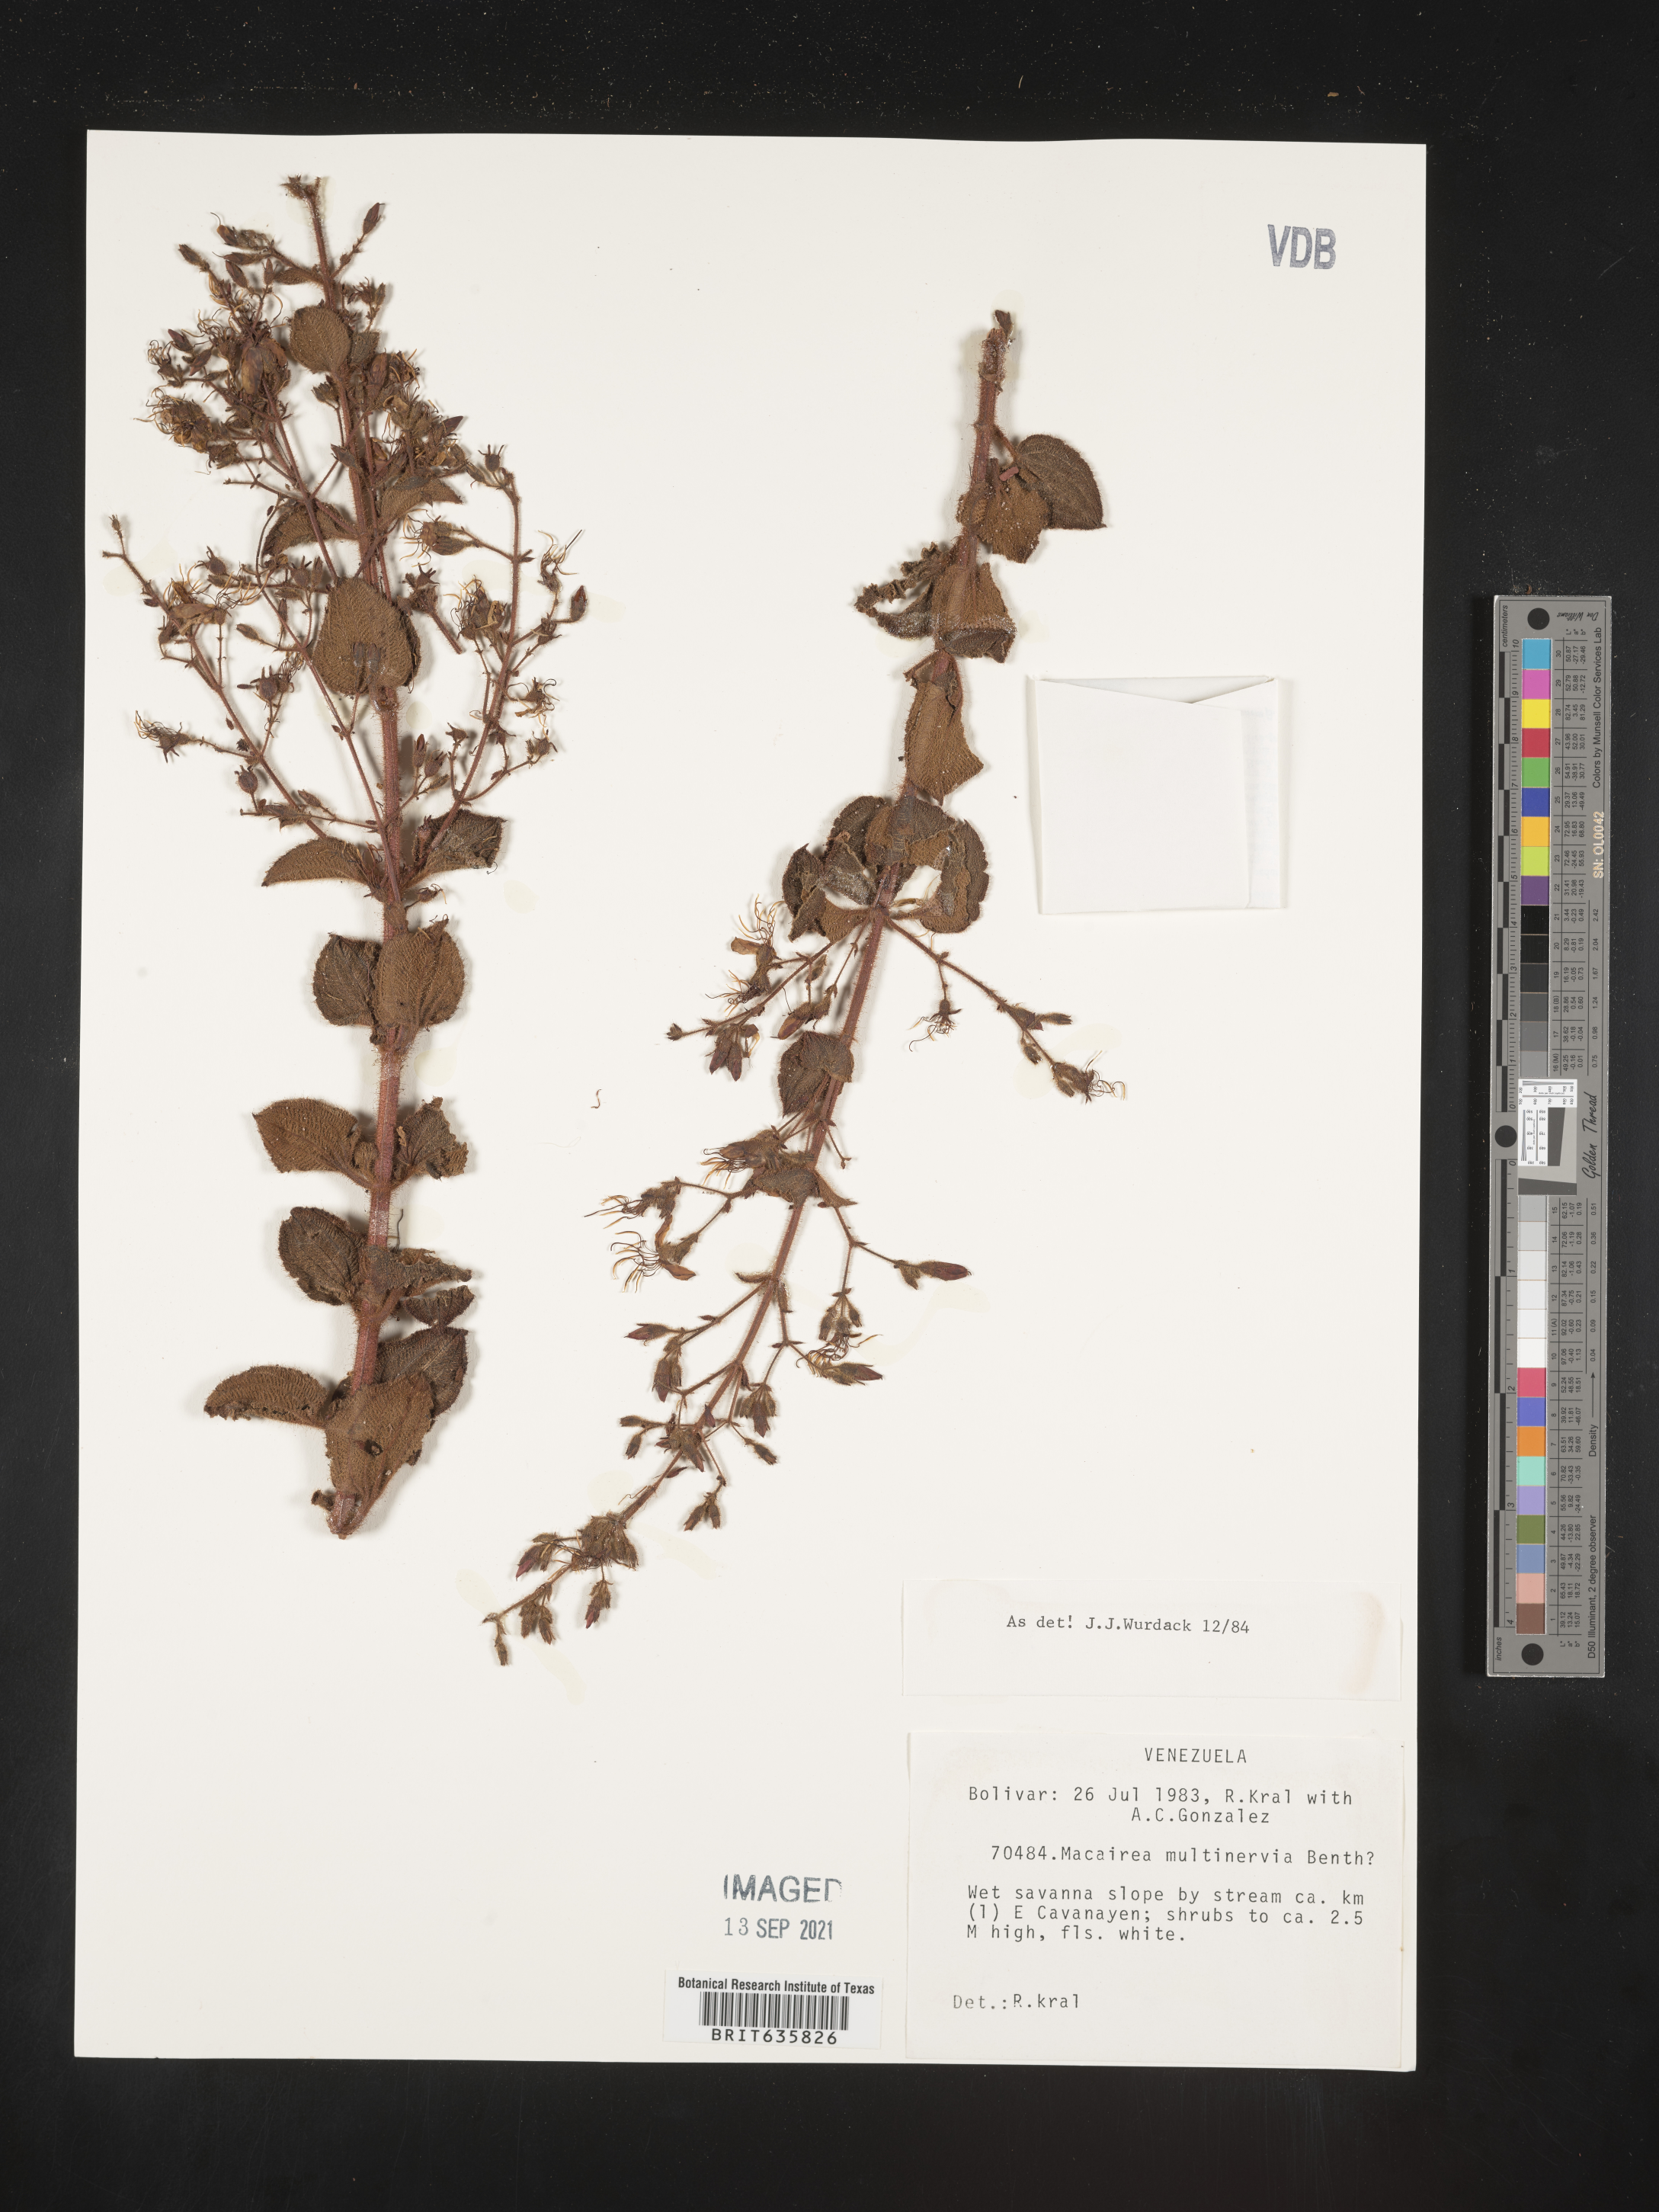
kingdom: Plantae
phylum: Tracheophyta
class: Magnoliopsida
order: Myrtales
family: Melastomataceae
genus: Macairea
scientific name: Macairea
